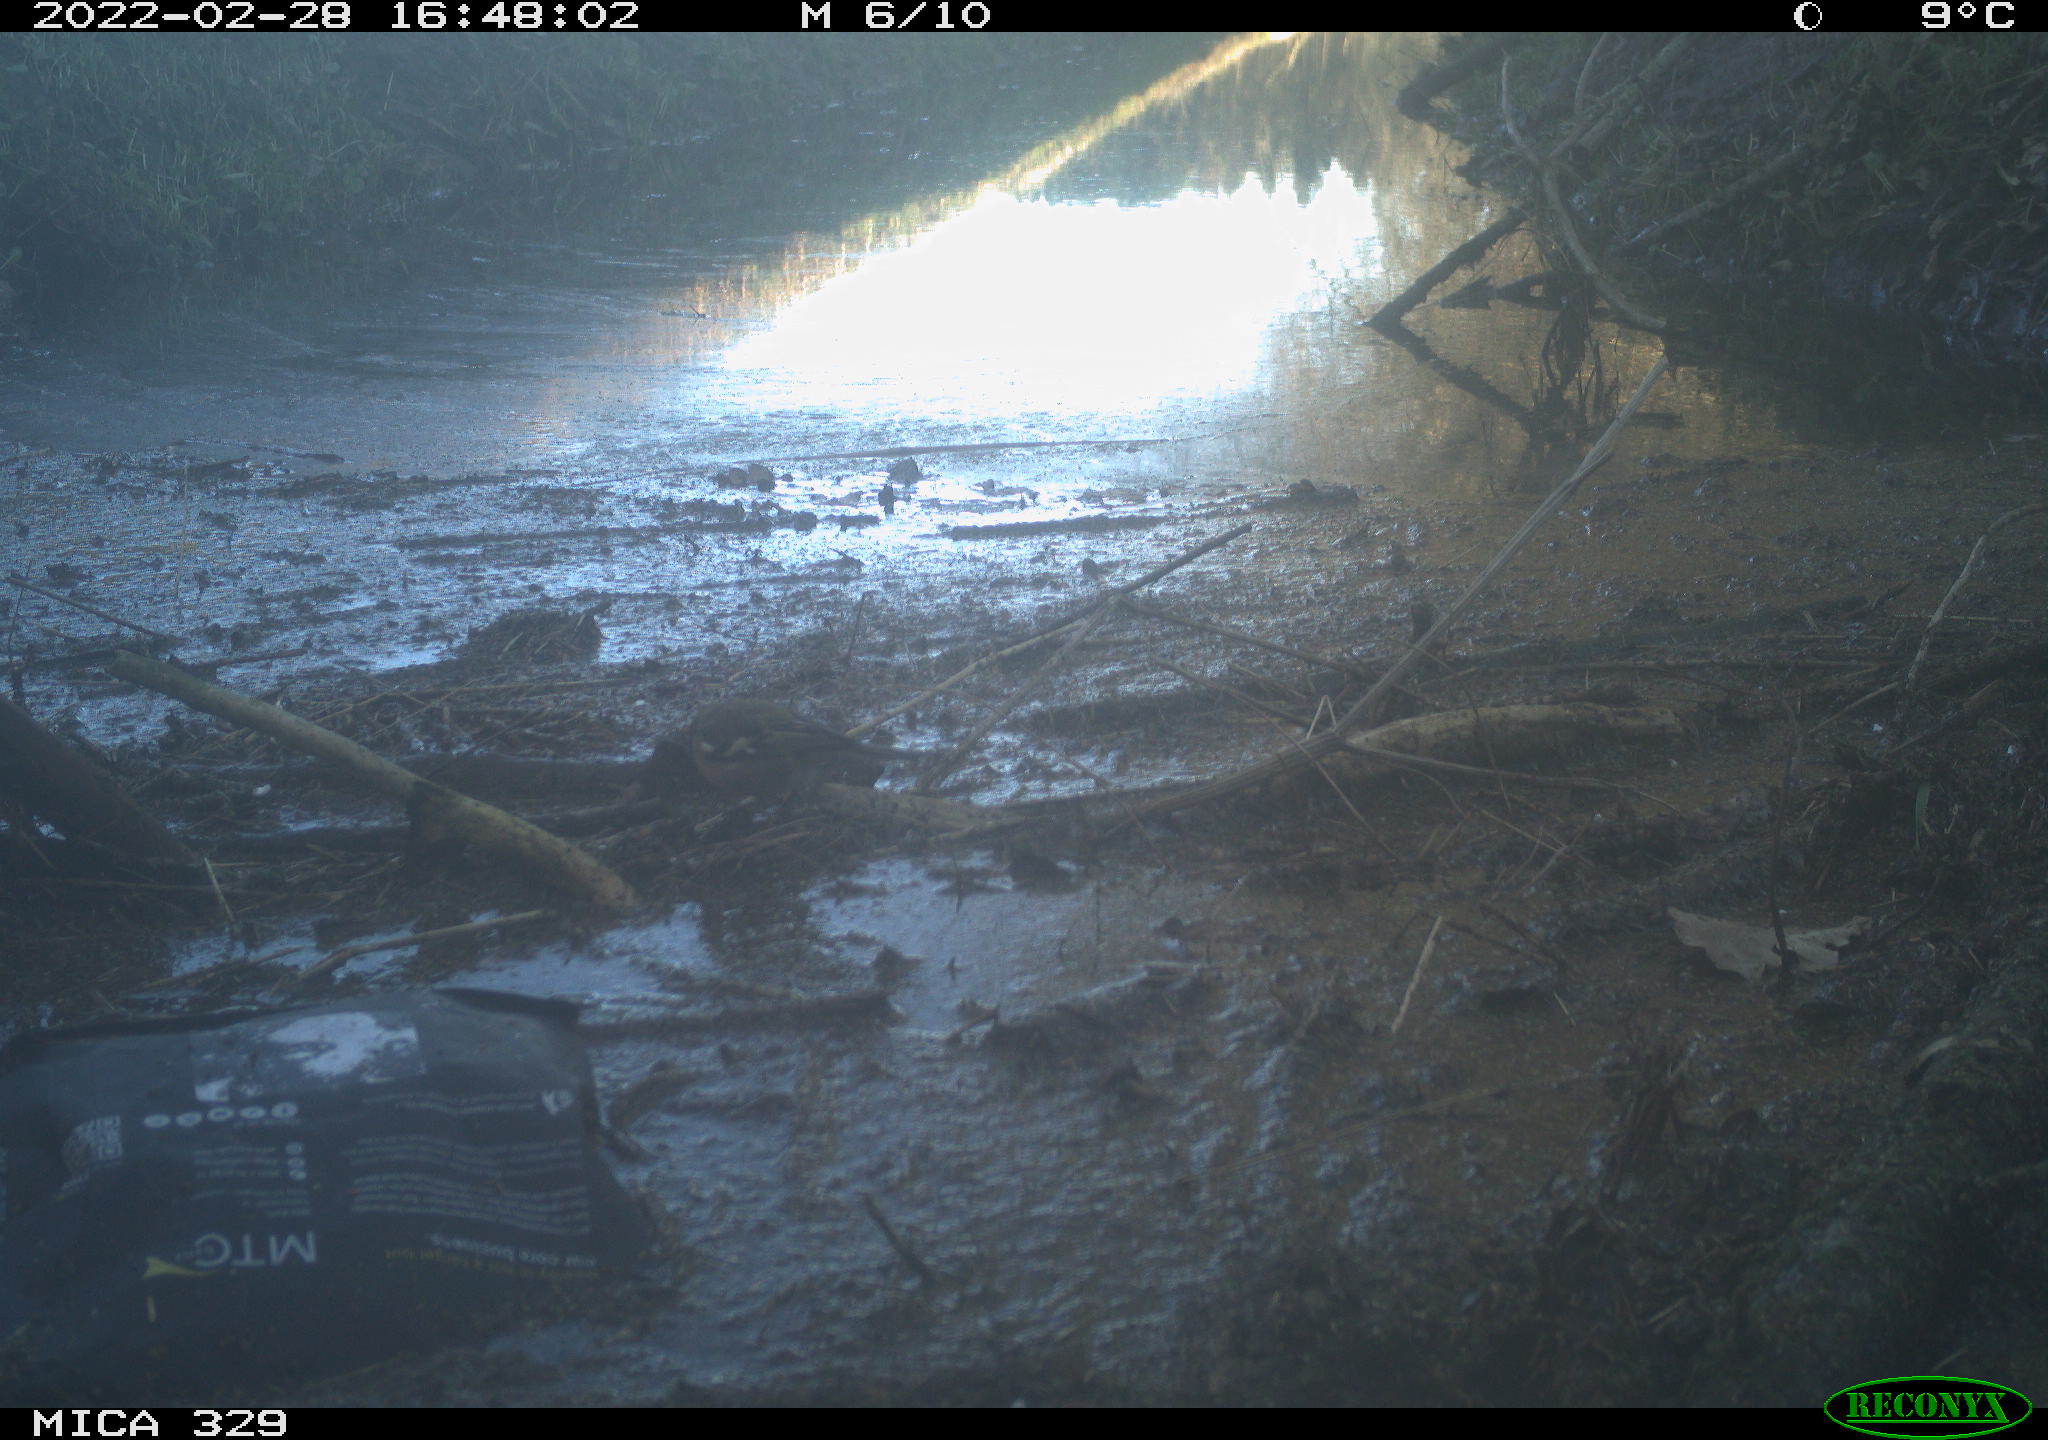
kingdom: Animalia
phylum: Chordata
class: Aves
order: Passeriformes
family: Fringillidae
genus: Fringilla
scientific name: Fringilla coelebs
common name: Common chaffinch
